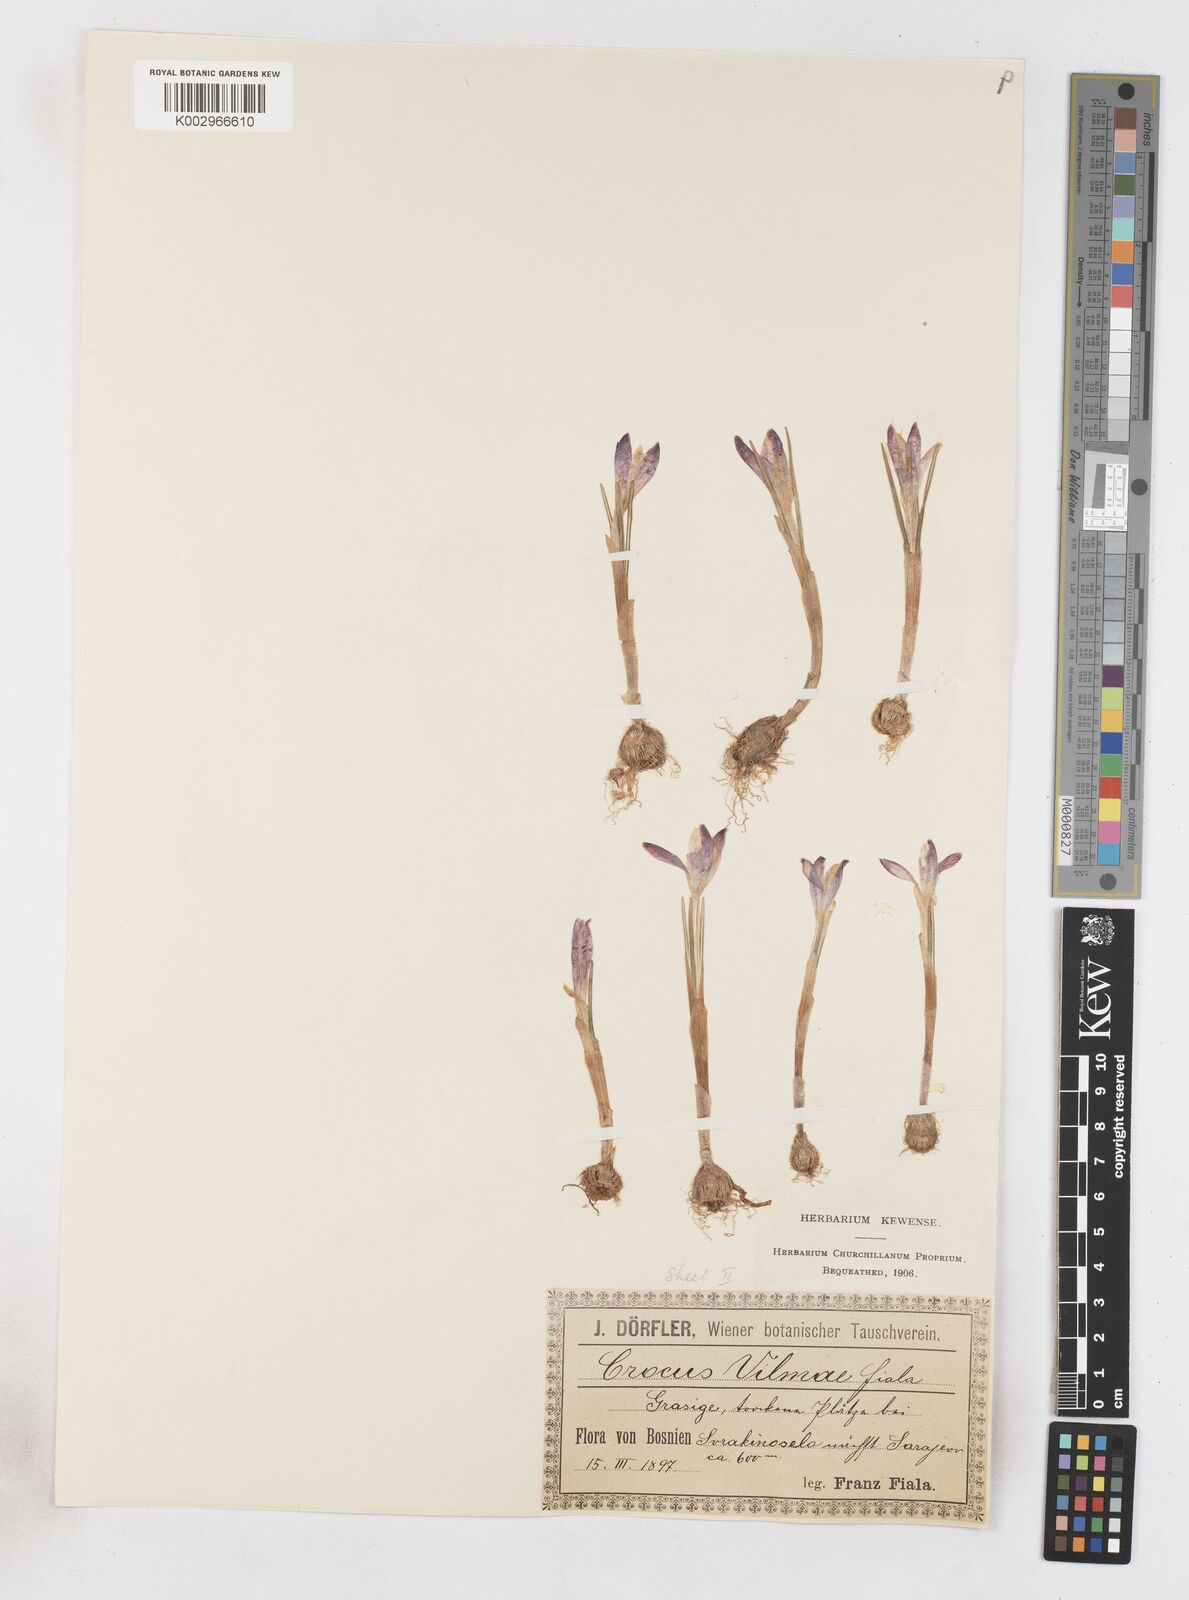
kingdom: Plantae
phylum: Tracheophyta
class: Liliopsida
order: Asparagales
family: Iridaceae
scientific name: Iridaceae
